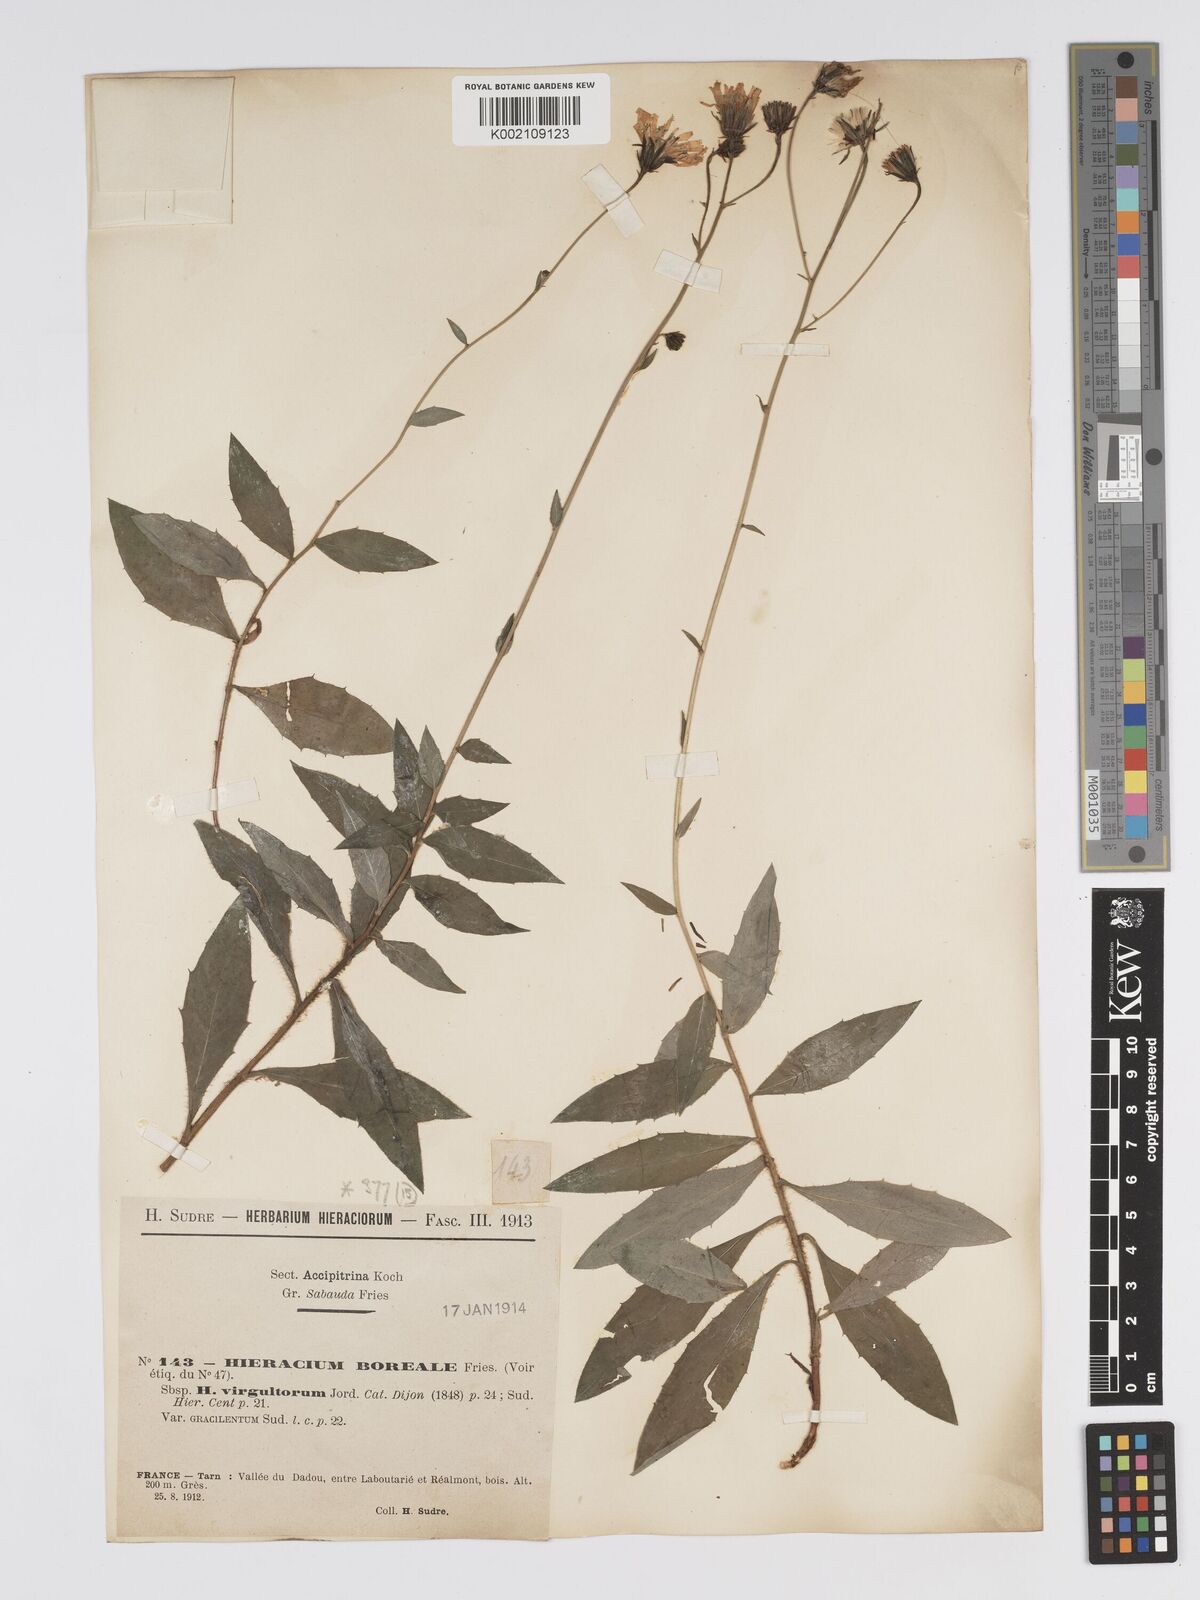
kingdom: Plantae
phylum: Tracheophyta
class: Magnoliopsida
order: Asterales
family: Asteraceae
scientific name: Asteraceae
